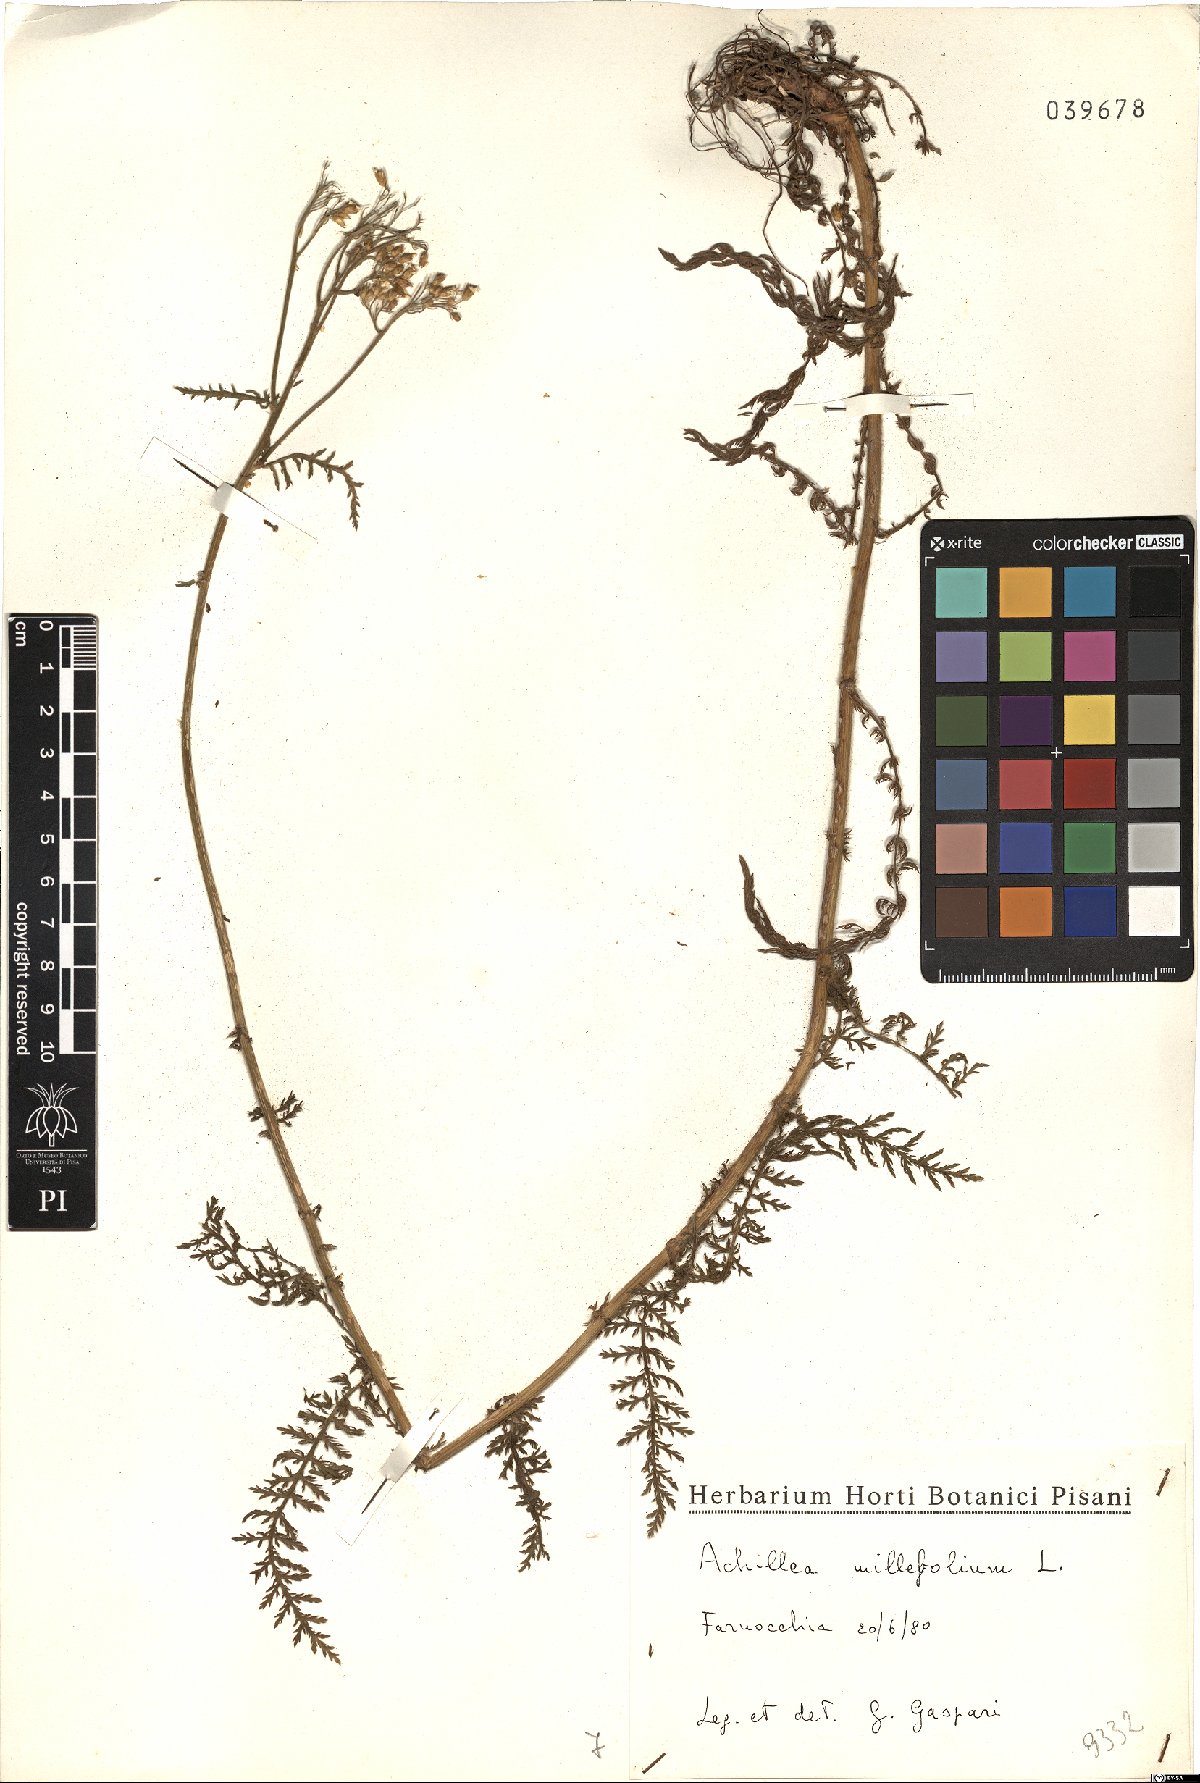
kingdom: Plantae
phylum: Tracheophyta
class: Magnoliopsida
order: Asterales
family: Asteraceae
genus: Achillea
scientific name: Achillea millefolium
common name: Yarrow
